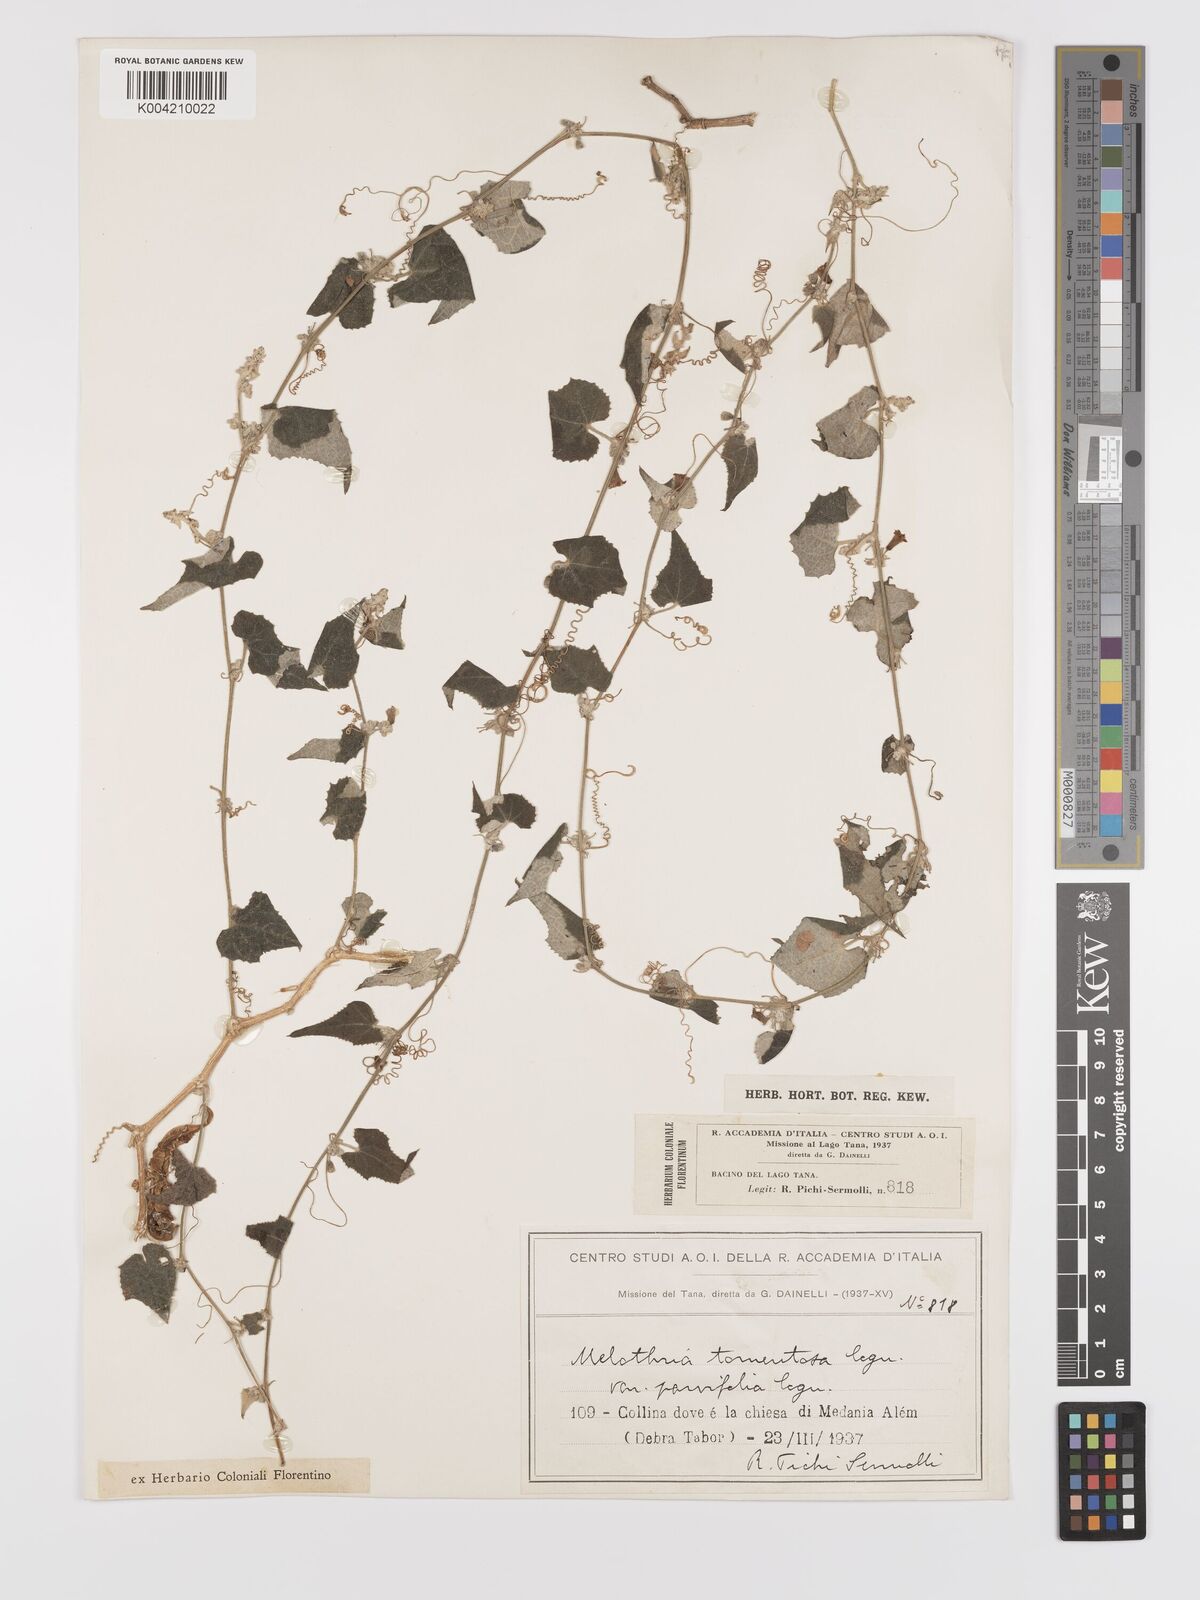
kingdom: Plantae
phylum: Tracheophyta
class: Magnoliopsida
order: Cucurbitales
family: Cucurbitaceae
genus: Zehneria
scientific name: Zehneria scabra
